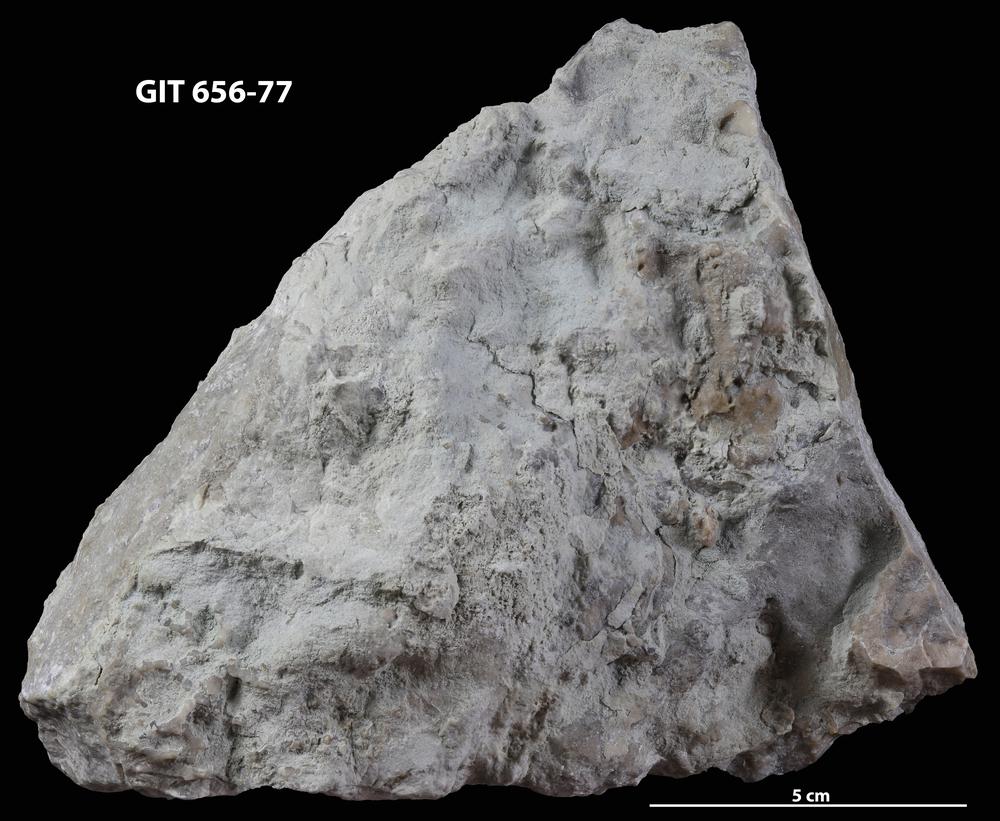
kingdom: Animalia
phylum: Cnidaria
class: Anthozoa
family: Auloporidae
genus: Aulopora
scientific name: Aulopora
